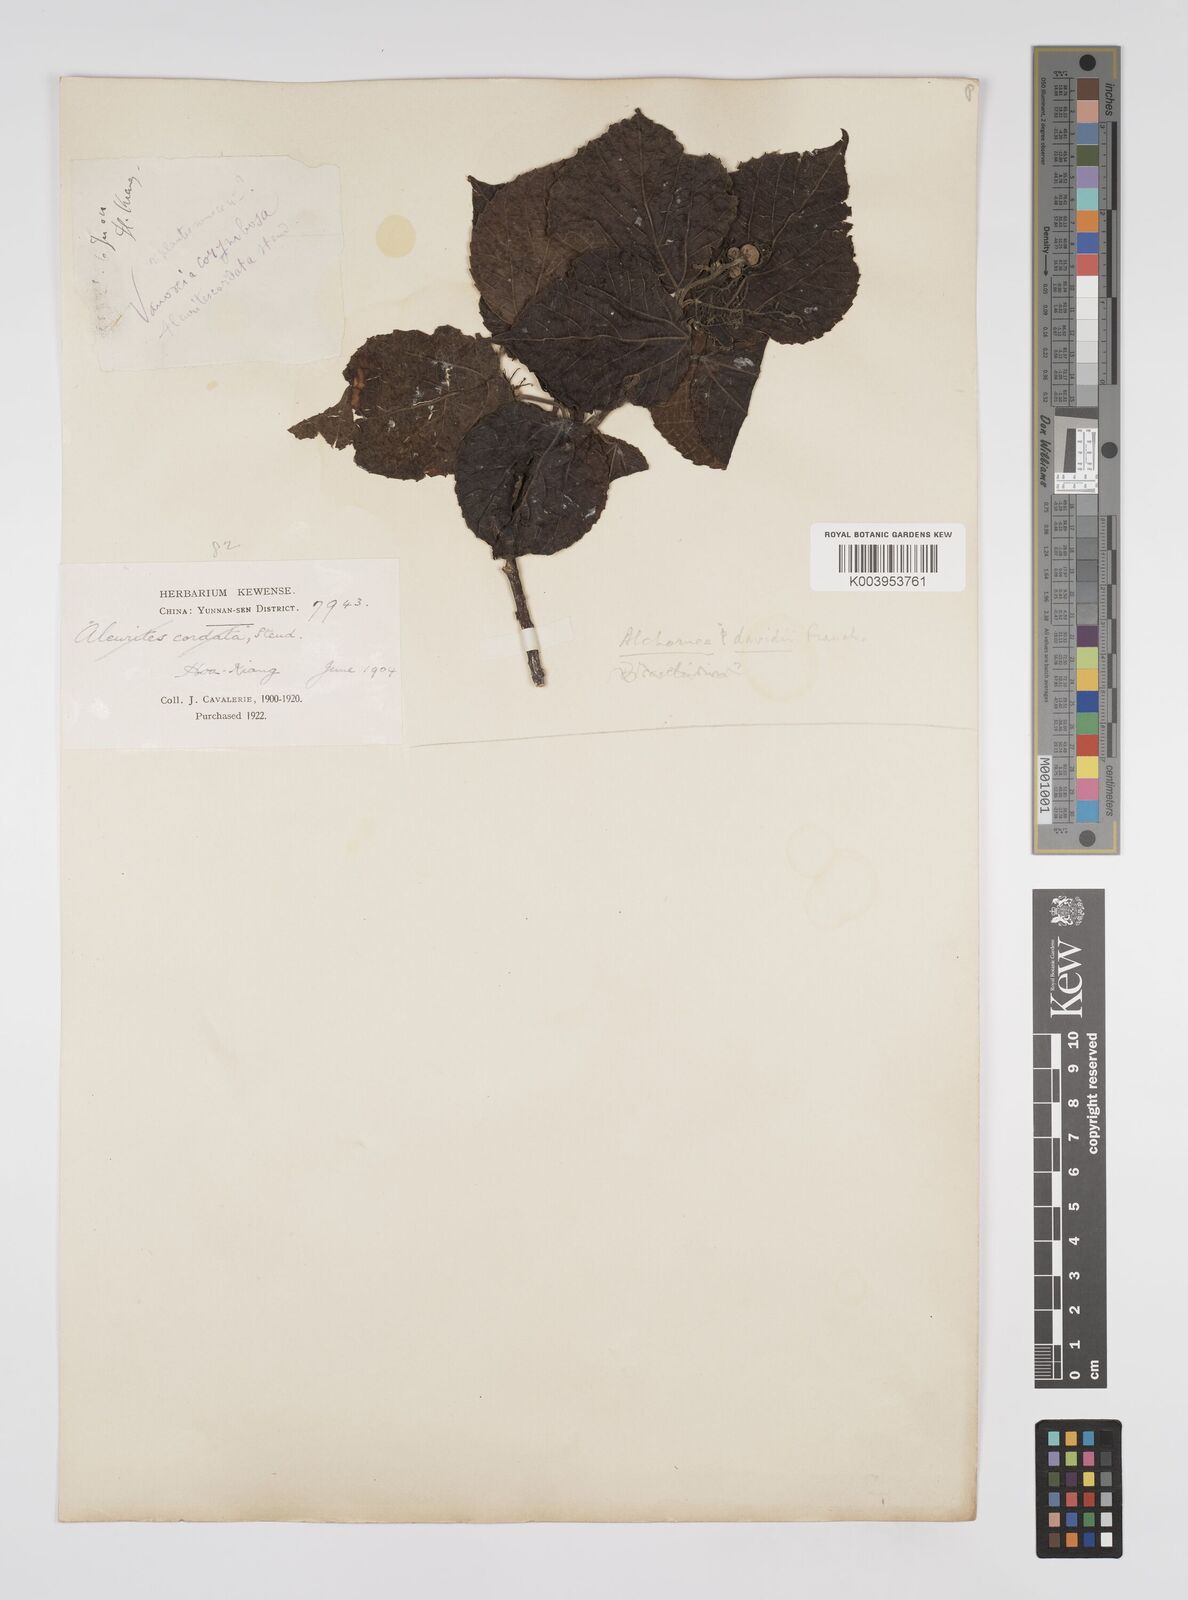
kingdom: Plantae
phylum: Tracheophyta
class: Magnoliopsida
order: Malpighiales
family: Euphorbiaceae
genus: Alchornea
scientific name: Alchornea davidii
